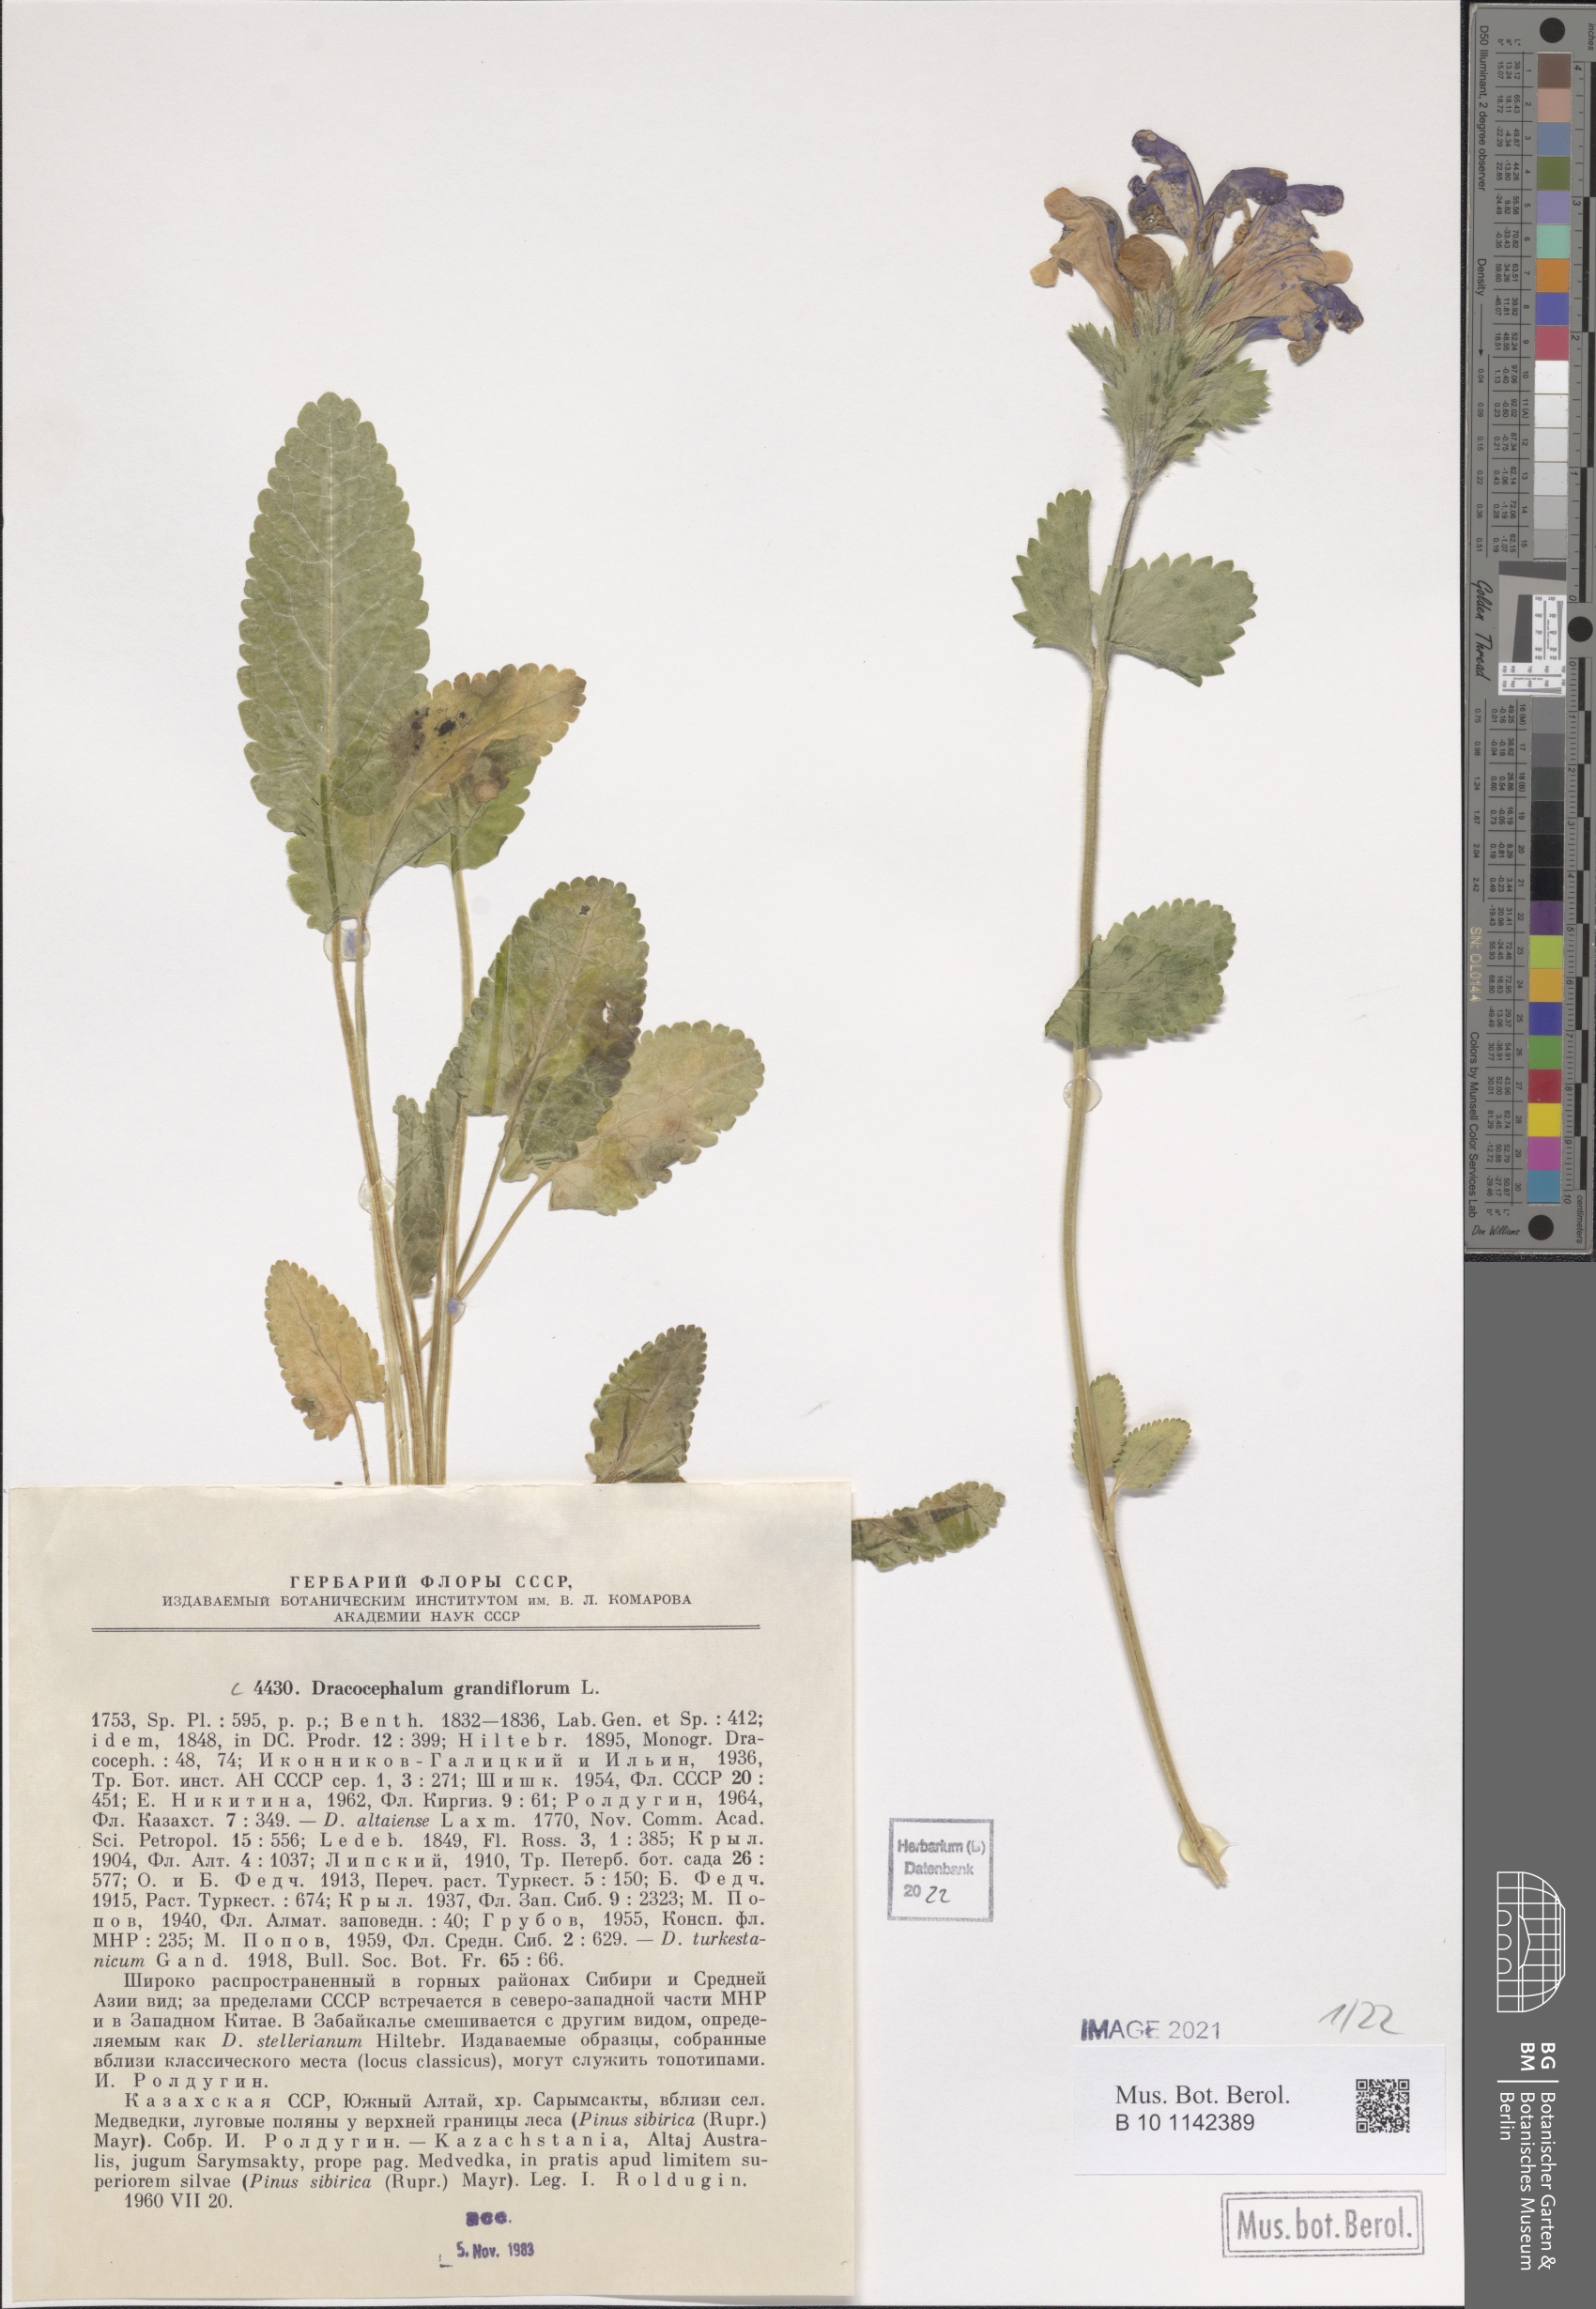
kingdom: Plantae
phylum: Tracheophyta
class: Magnoliopsida
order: Lamiales
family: Lamiaceae
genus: Dracocephalum
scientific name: Dracocephalum grandiflorum
